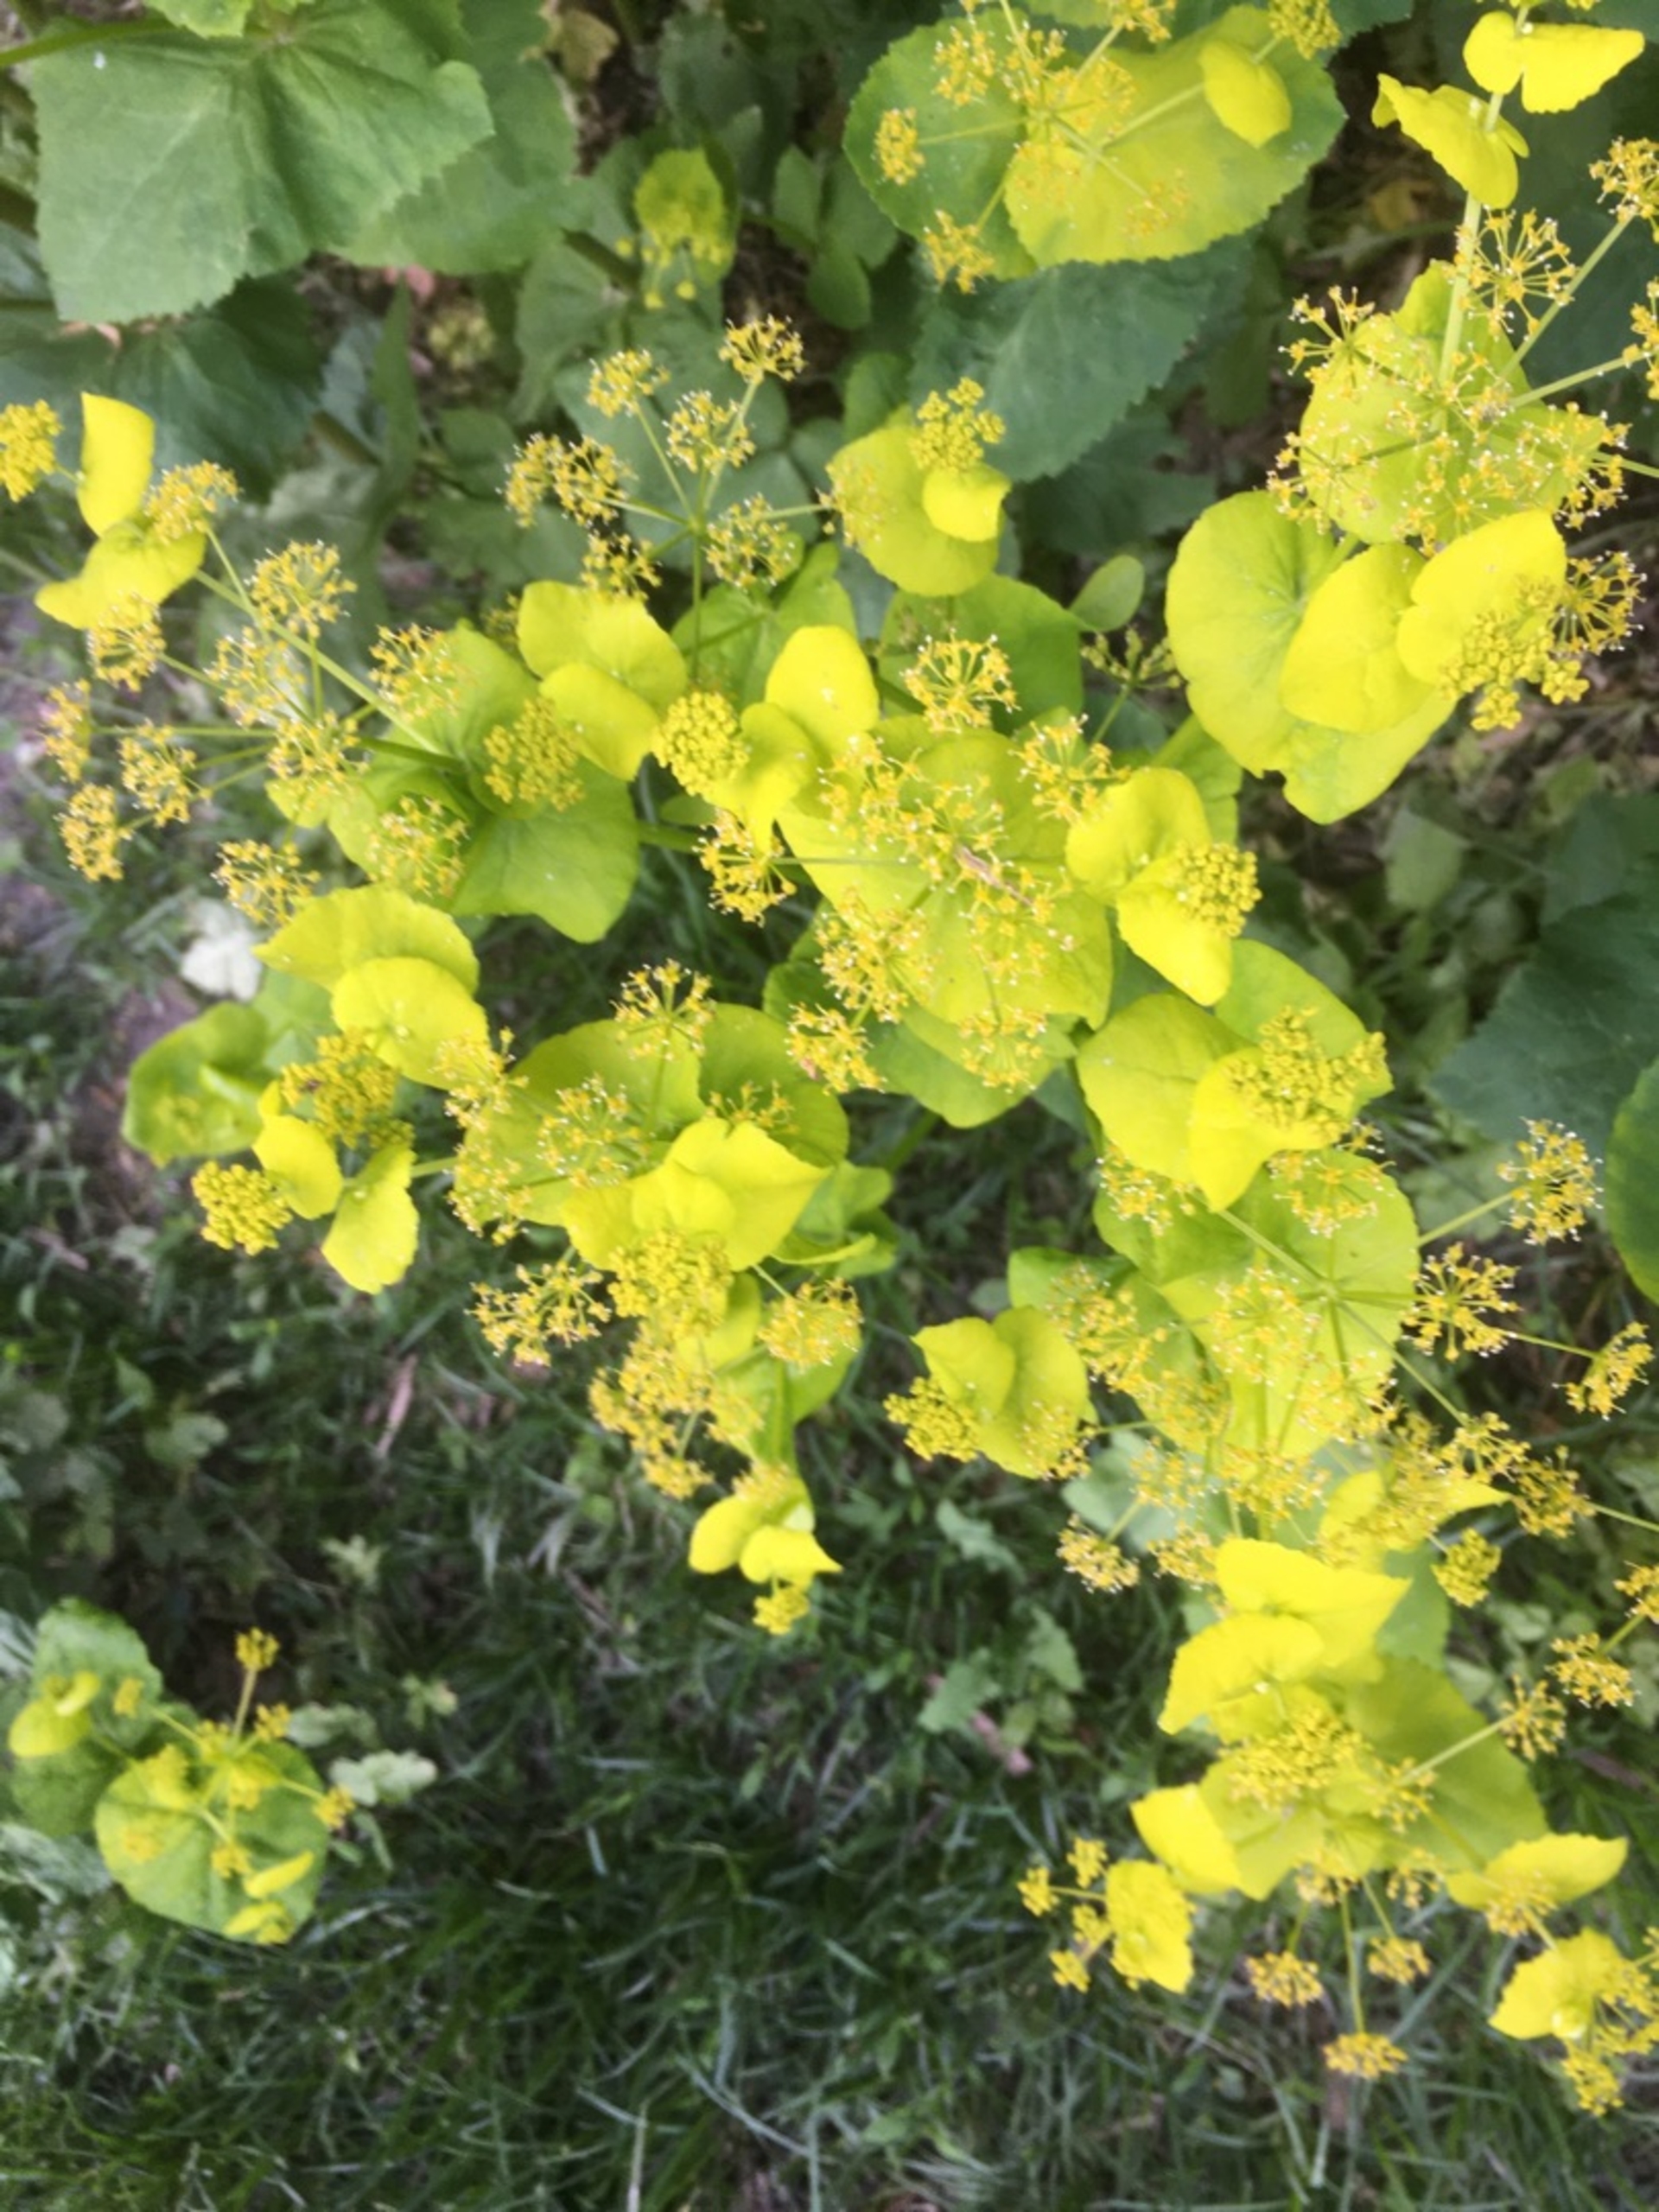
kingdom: Plantae
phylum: Tracheophyta
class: Magnoliopsida
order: Apiales
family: Apiaceae
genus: Smyrnium
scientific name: Smyrnium perfoliatum
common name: Lundgylden
